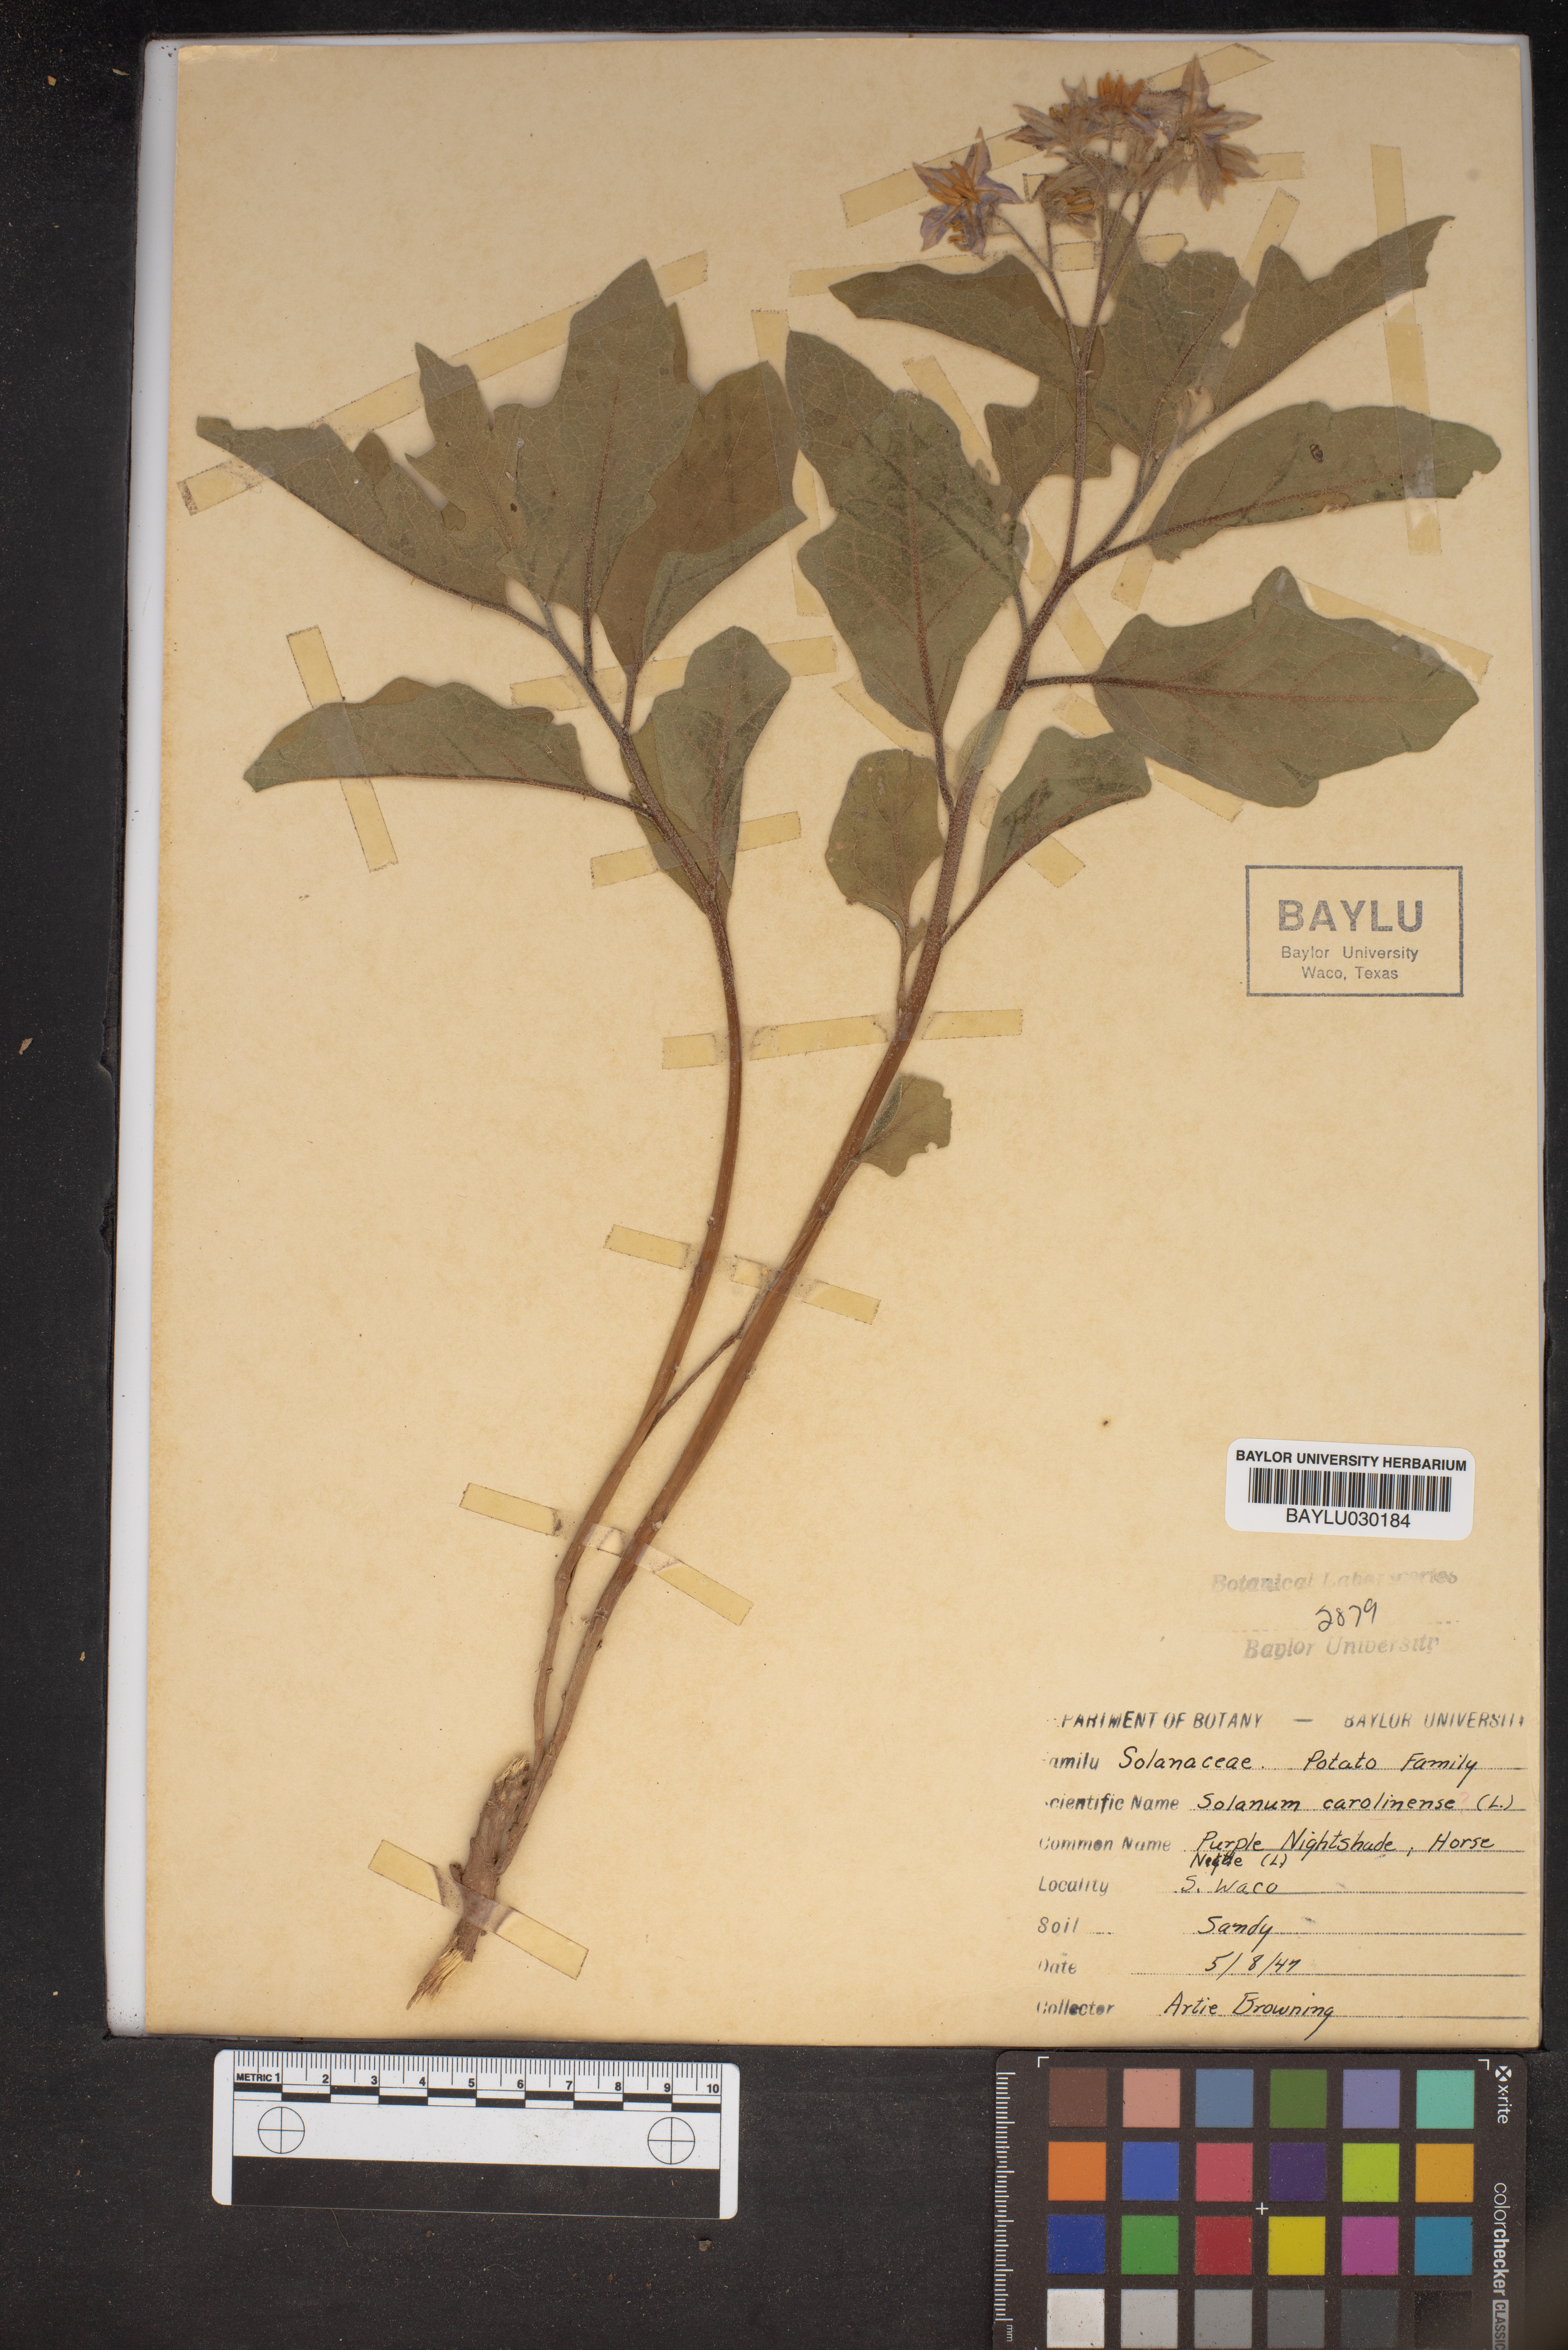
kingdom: Plantae
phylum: Tracheophyta
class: Magnoliopsida
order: Solanales
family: Solanaceae
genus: Solanum
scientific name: Solanum carolinense
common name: Horse-nettle
